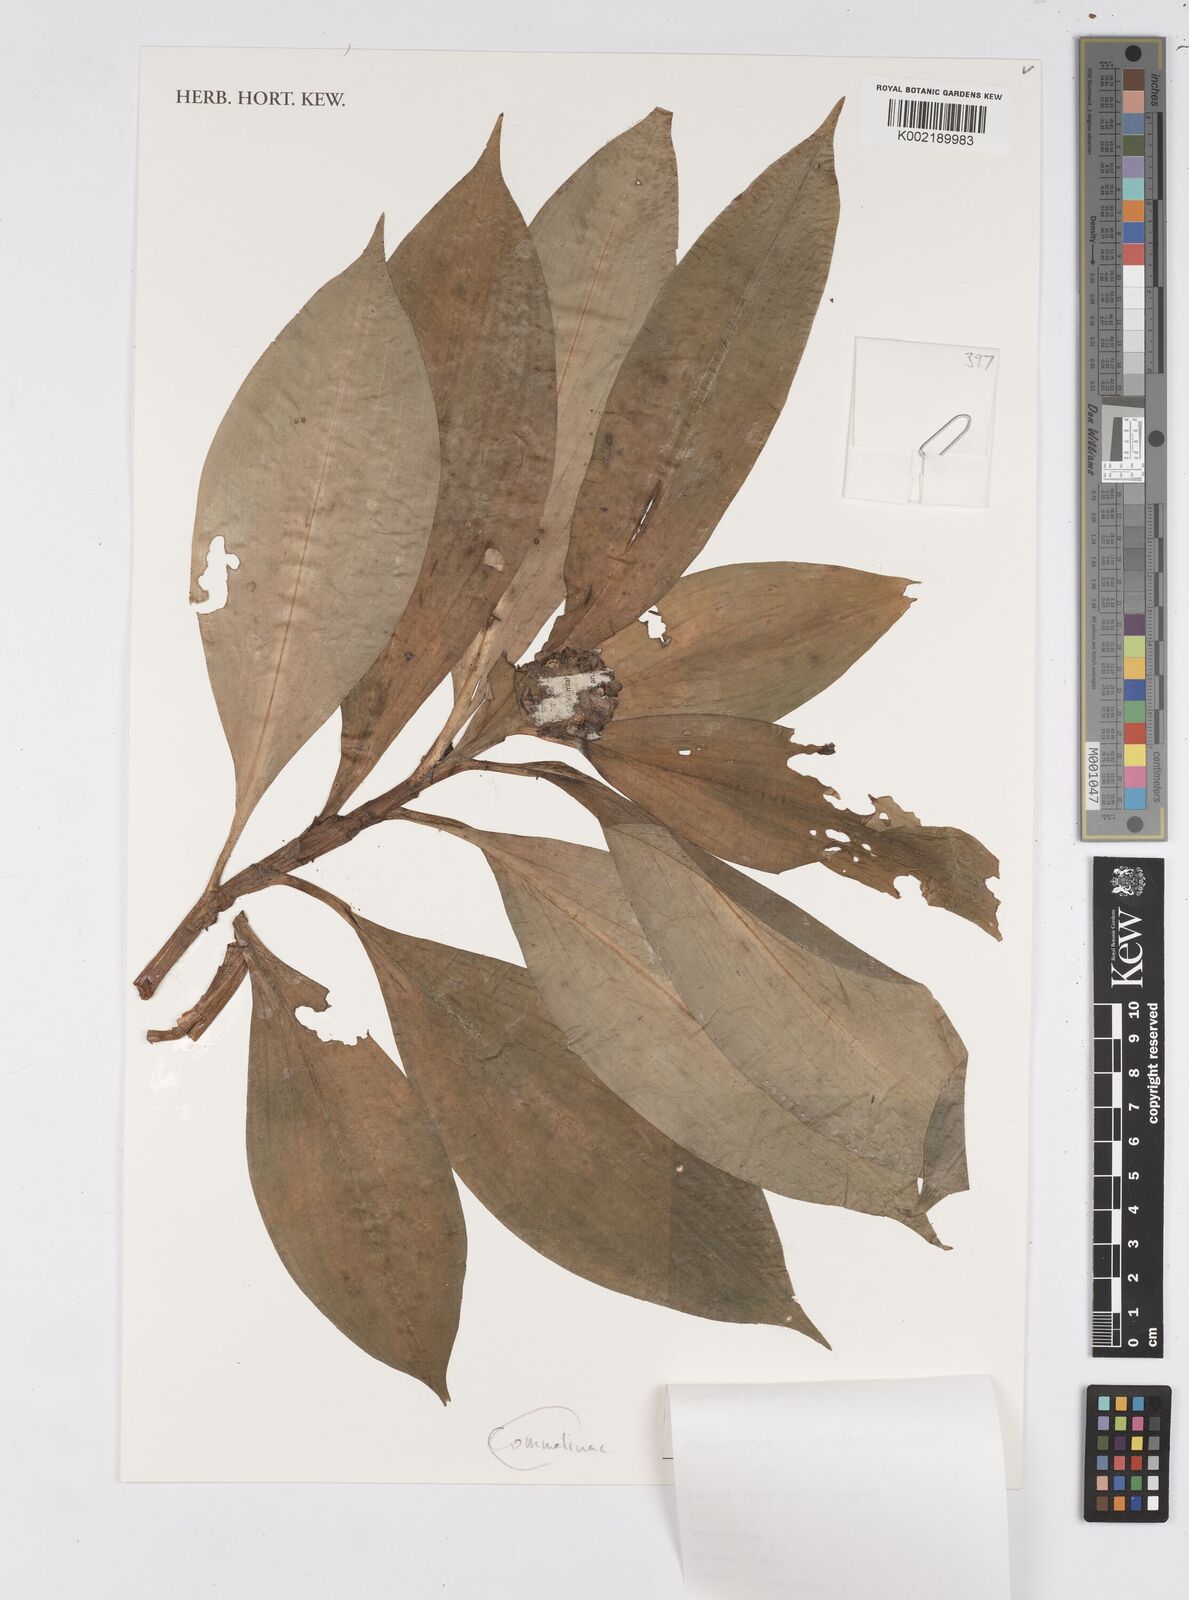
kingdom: Plantae
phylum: Tracheophyta
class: Liliopsida
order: Zingiberales
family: Costaceae
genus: Costus
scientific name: Costus
